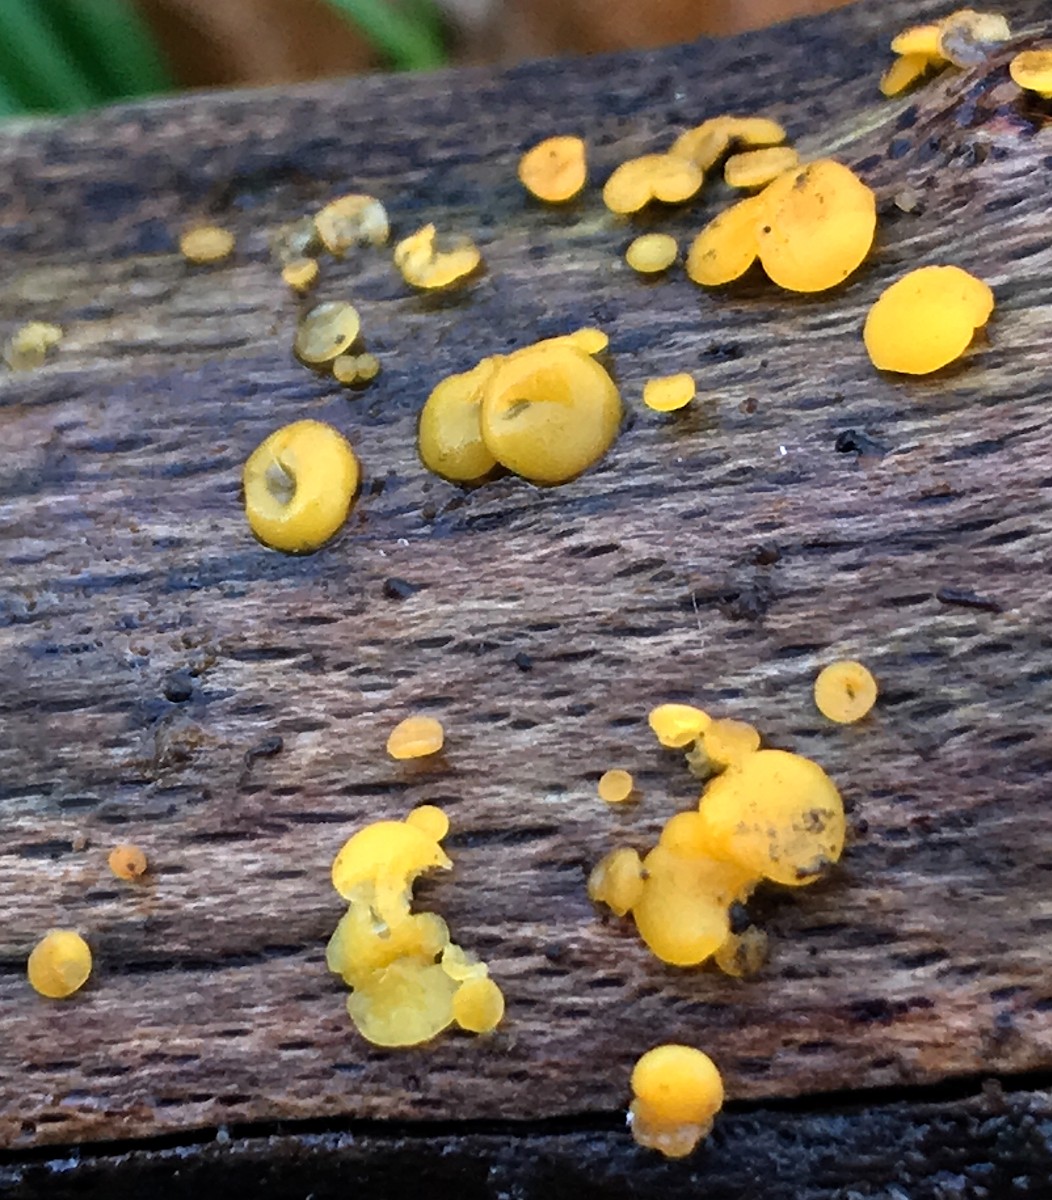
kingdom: Fungi
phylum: Ascomycota
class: Leotiomycetes
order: Helotiales
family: Pezizellaceae
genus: Calycina
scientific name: Calycina citrina
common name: almindelig gulskive
